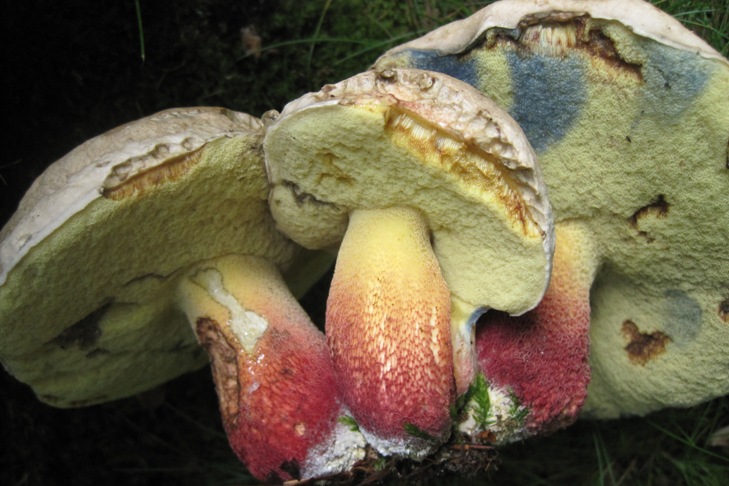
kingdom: Fungi
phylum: Basidiomycota
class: Agaricomycetes
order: Boletales
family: Boletaceae
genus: Caloboletus
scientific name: Caloboletus calopus
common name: skønfodet rørhat
